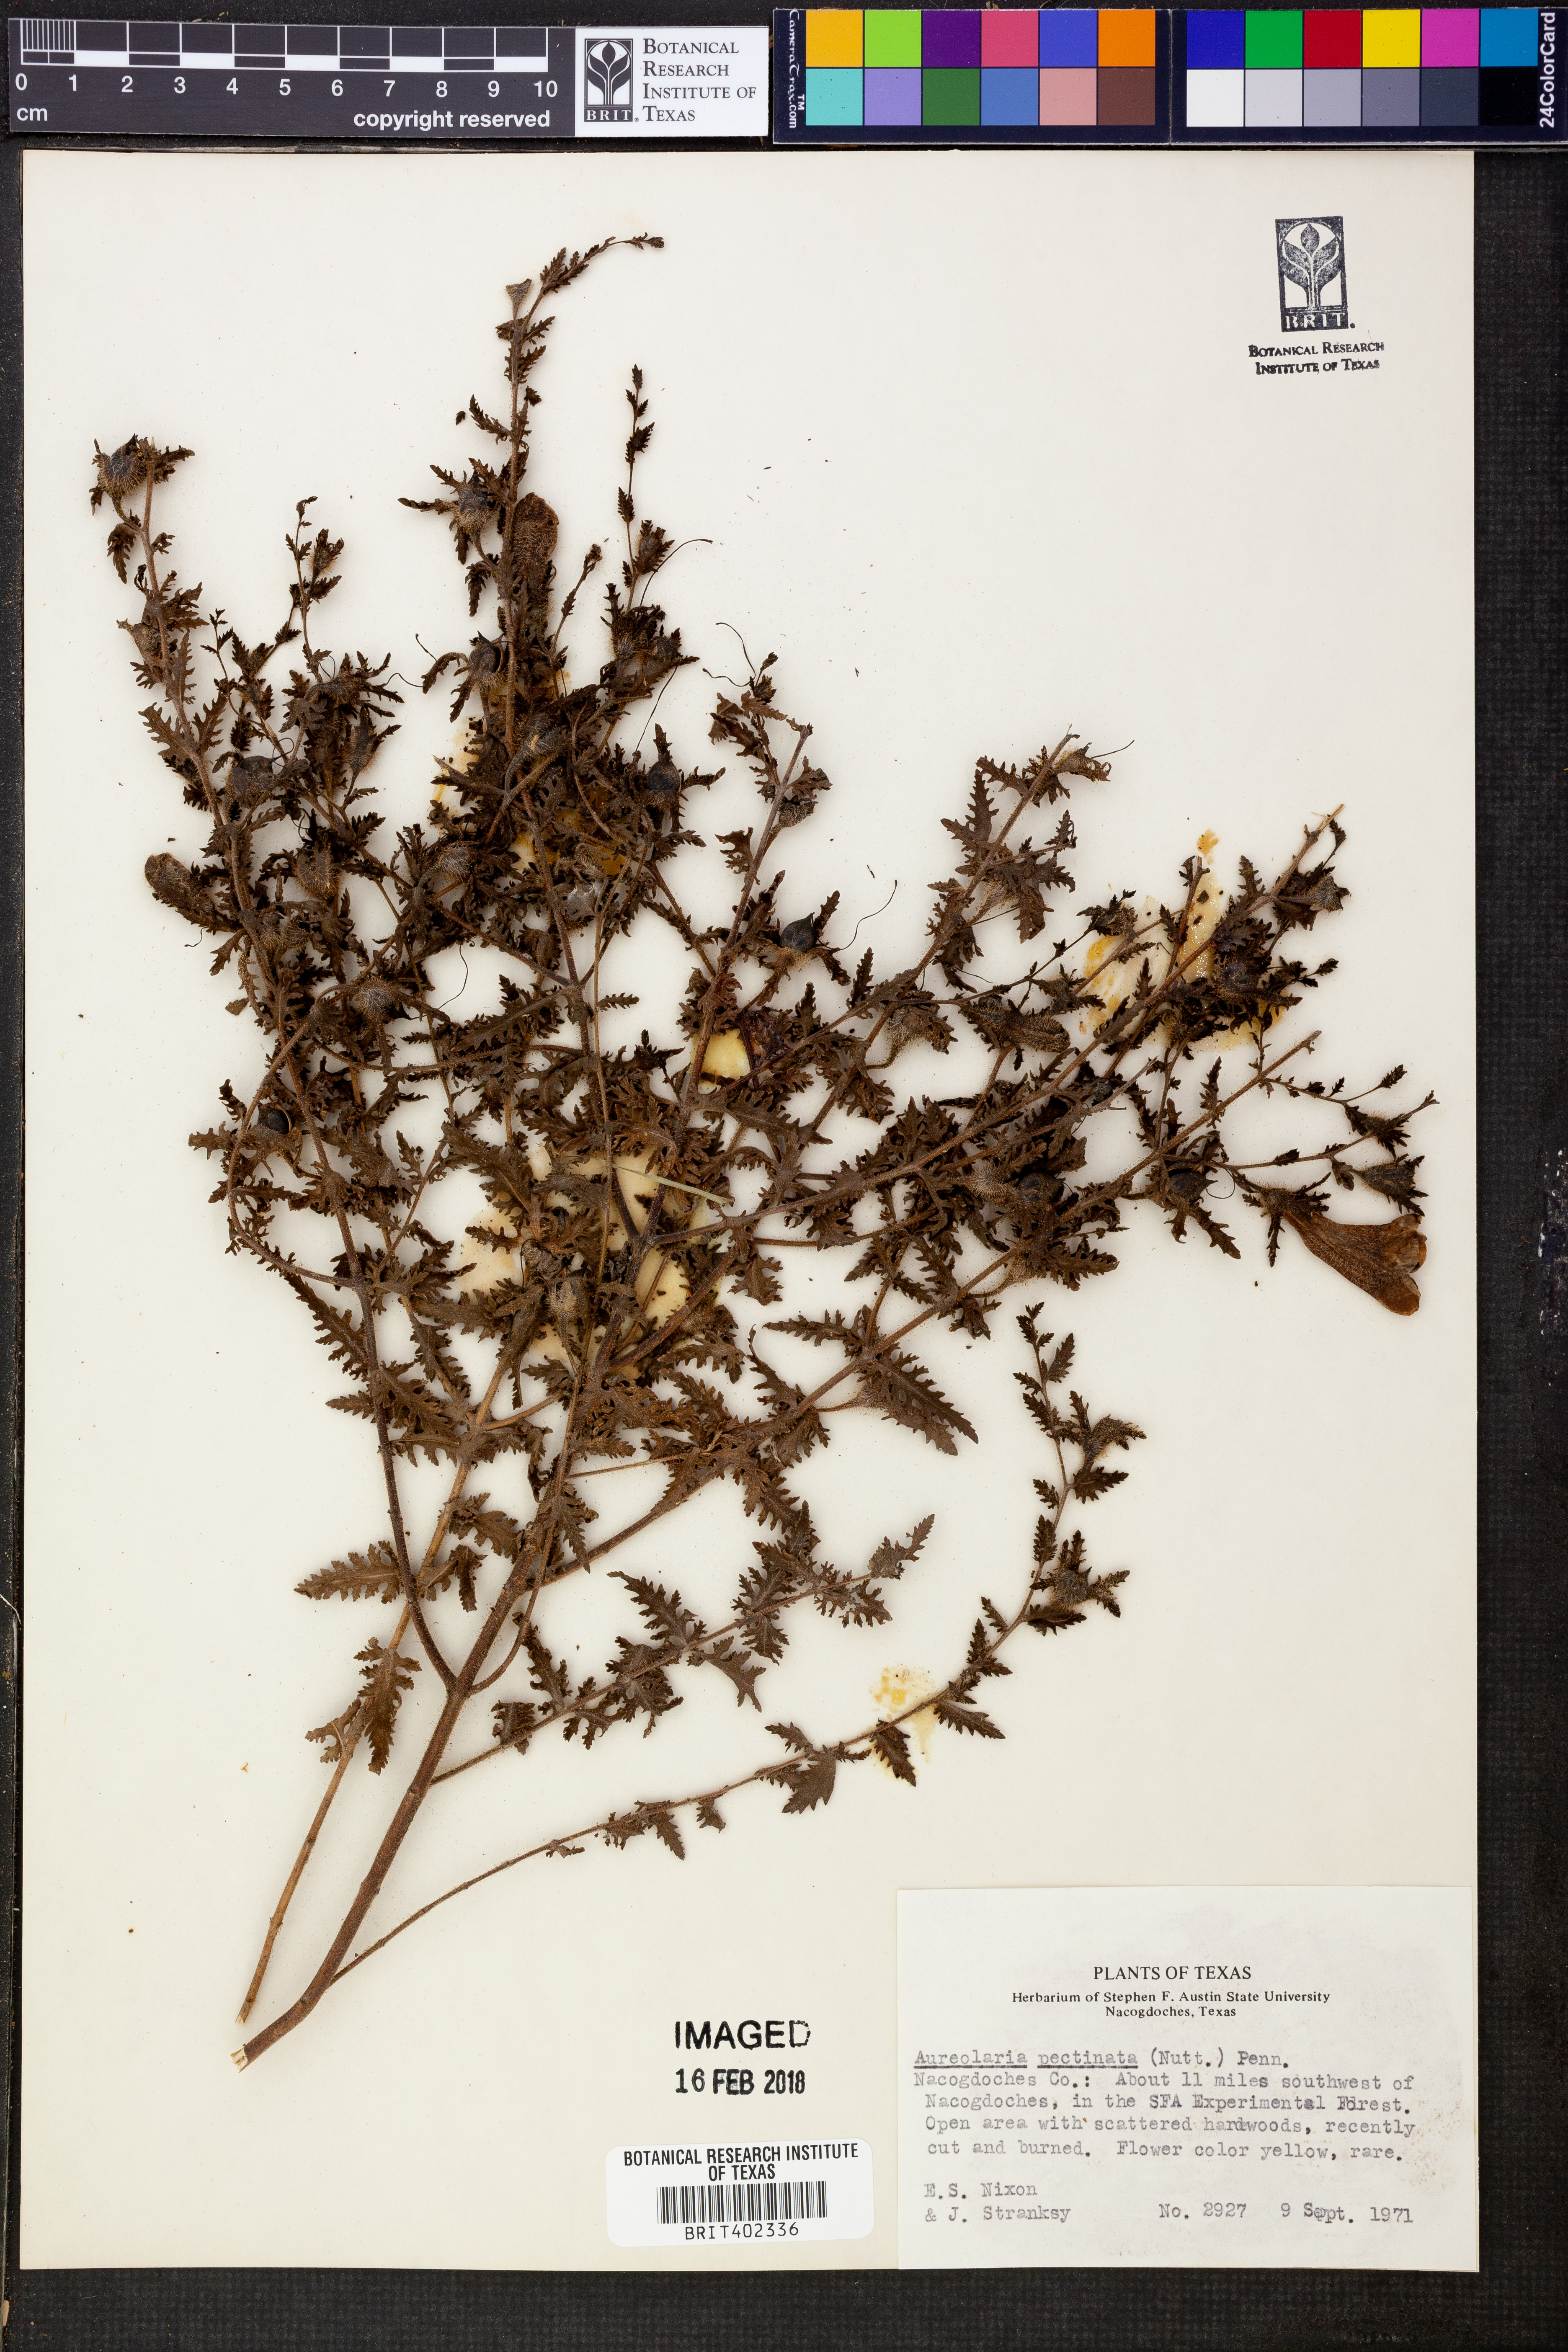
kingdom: Plantae
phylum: Tracheophyta
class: Magnoliopsida
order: Lamiales
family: Orobanchaceae
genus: Aureolaria
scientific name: Aureolaria pectinata
